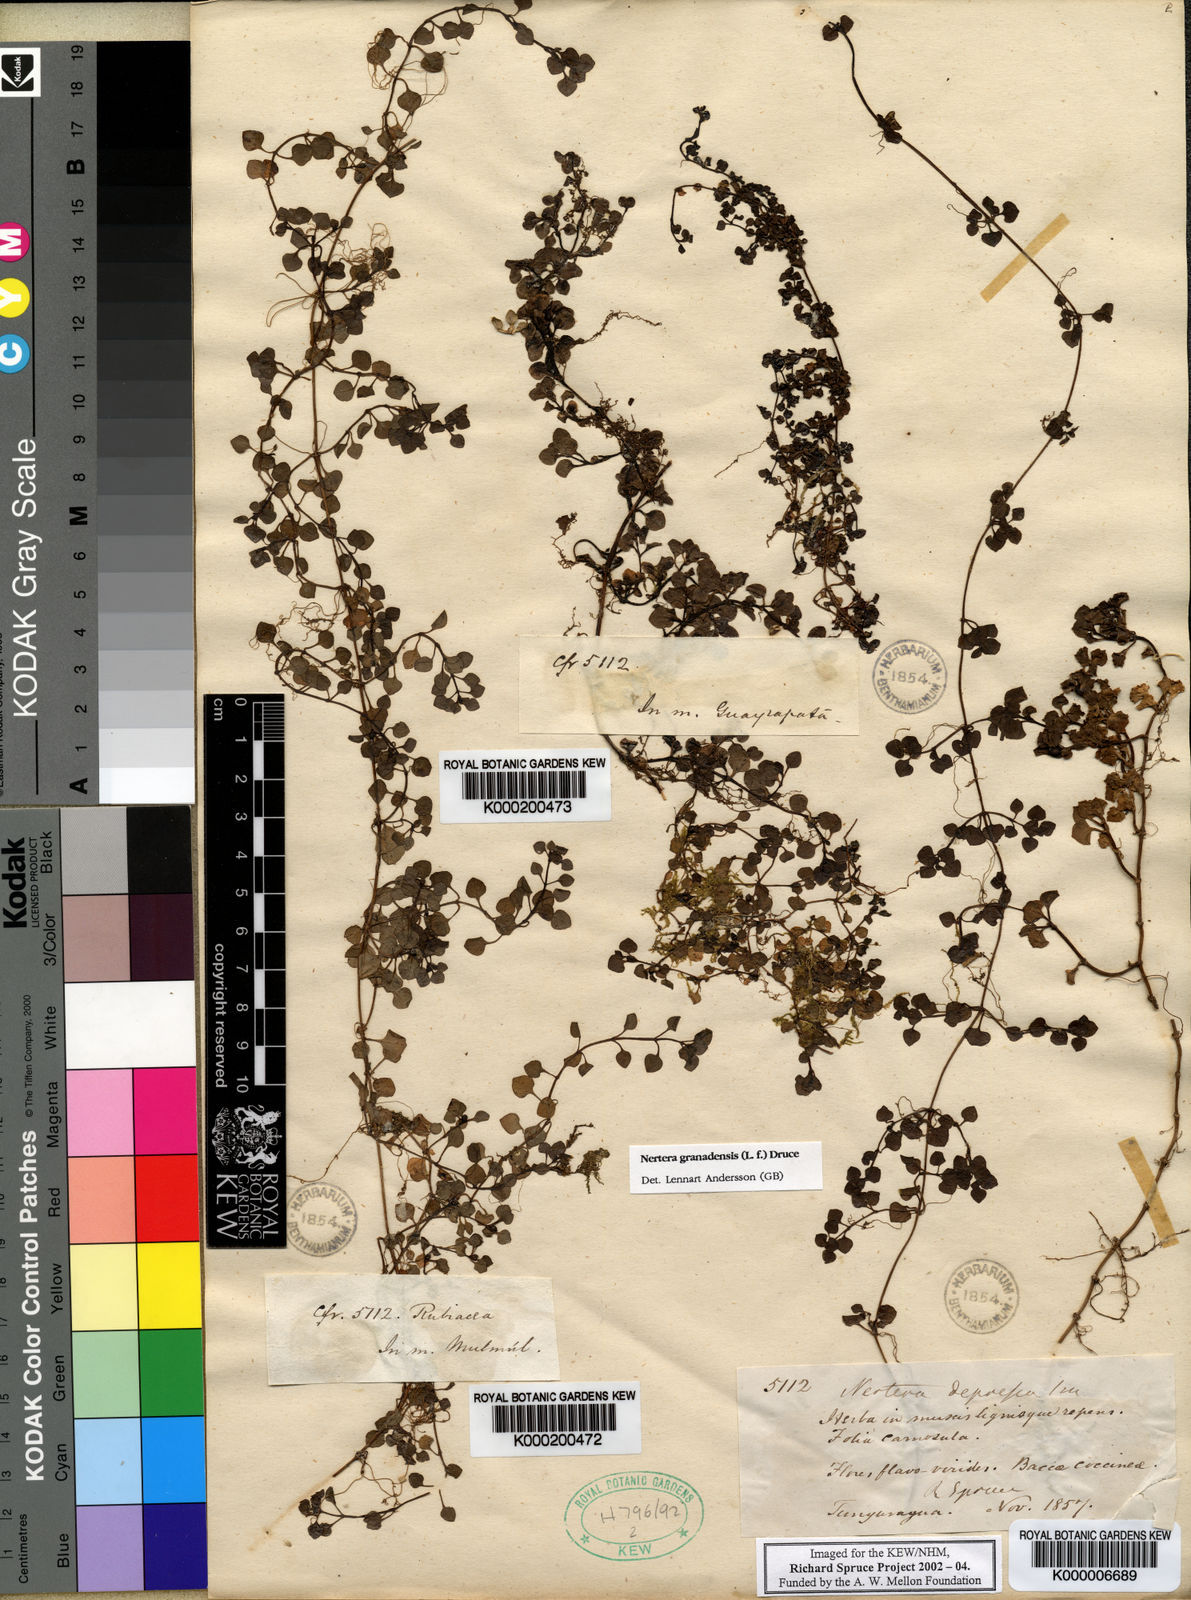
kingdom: Plantae
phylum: Tracheophyta
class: Magnoliopsida
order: Gentianales
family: Rubiaceae
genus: Nertera
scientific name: Nertera granadensis
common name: Beadplant
